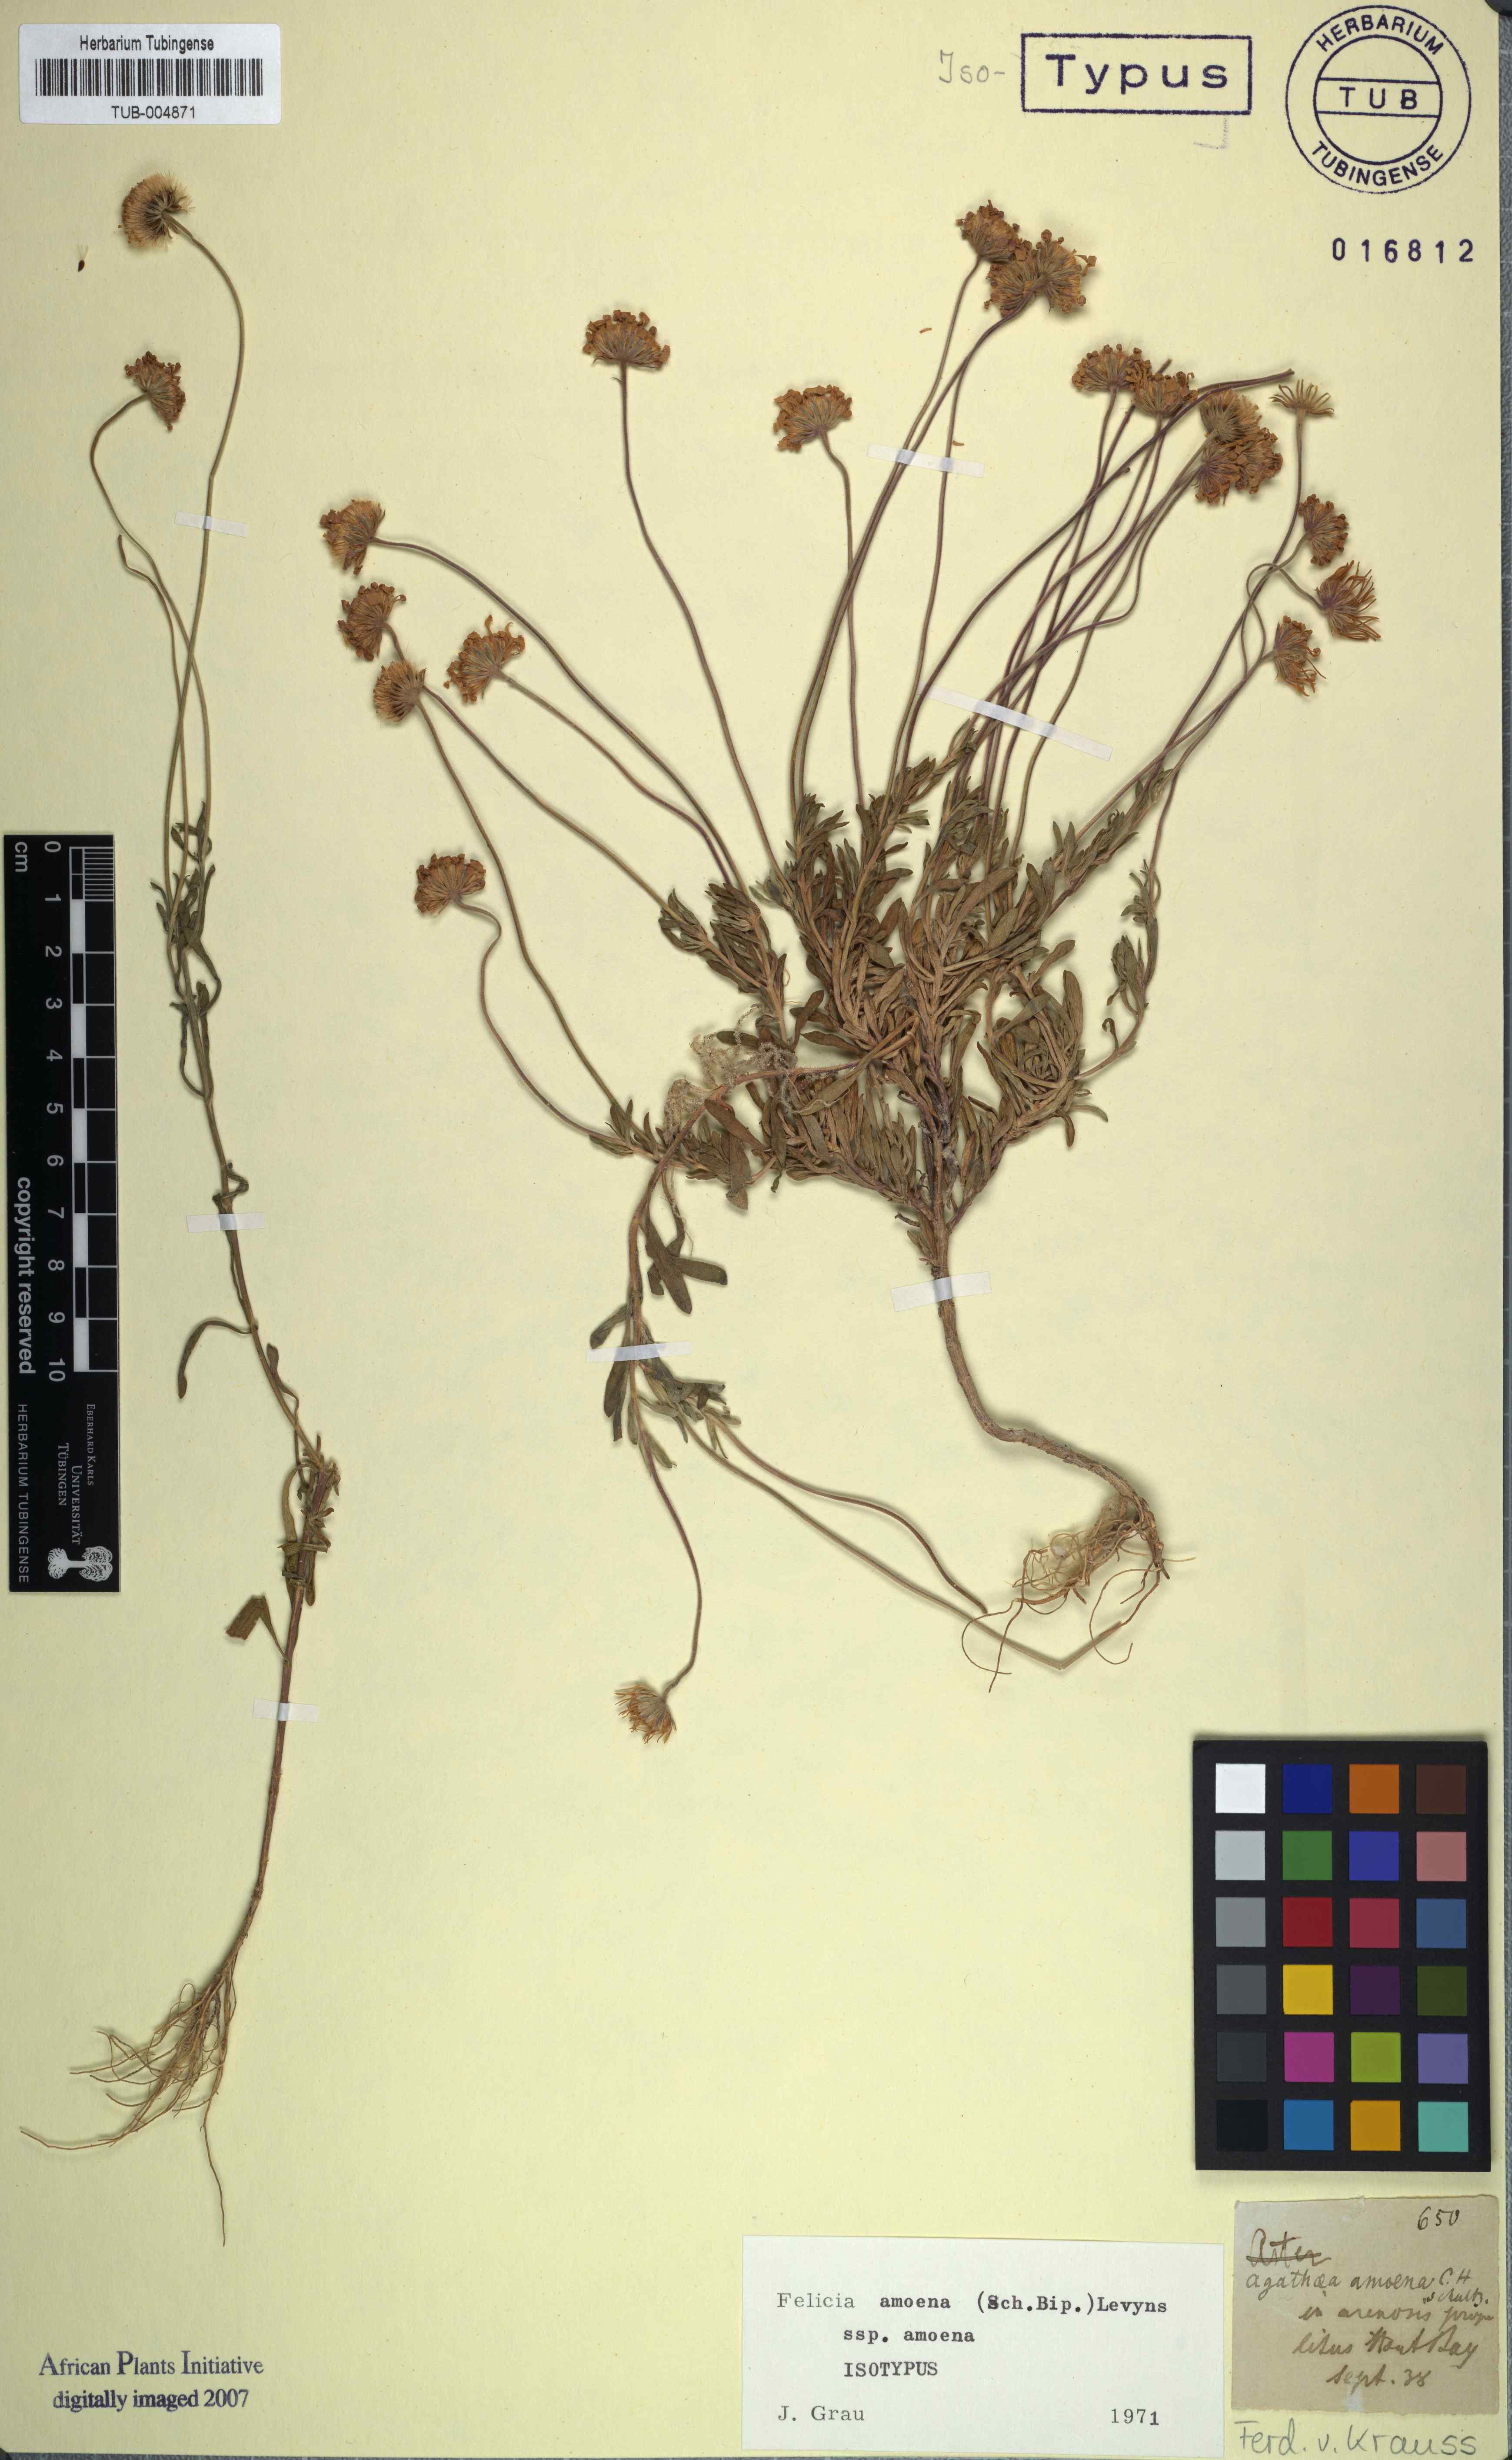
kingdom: Plantae
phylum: Tracheophyta
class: Magnoliopsida
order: Asterales
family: Asteraceae
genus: Felicia
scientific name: Felicia amoena
